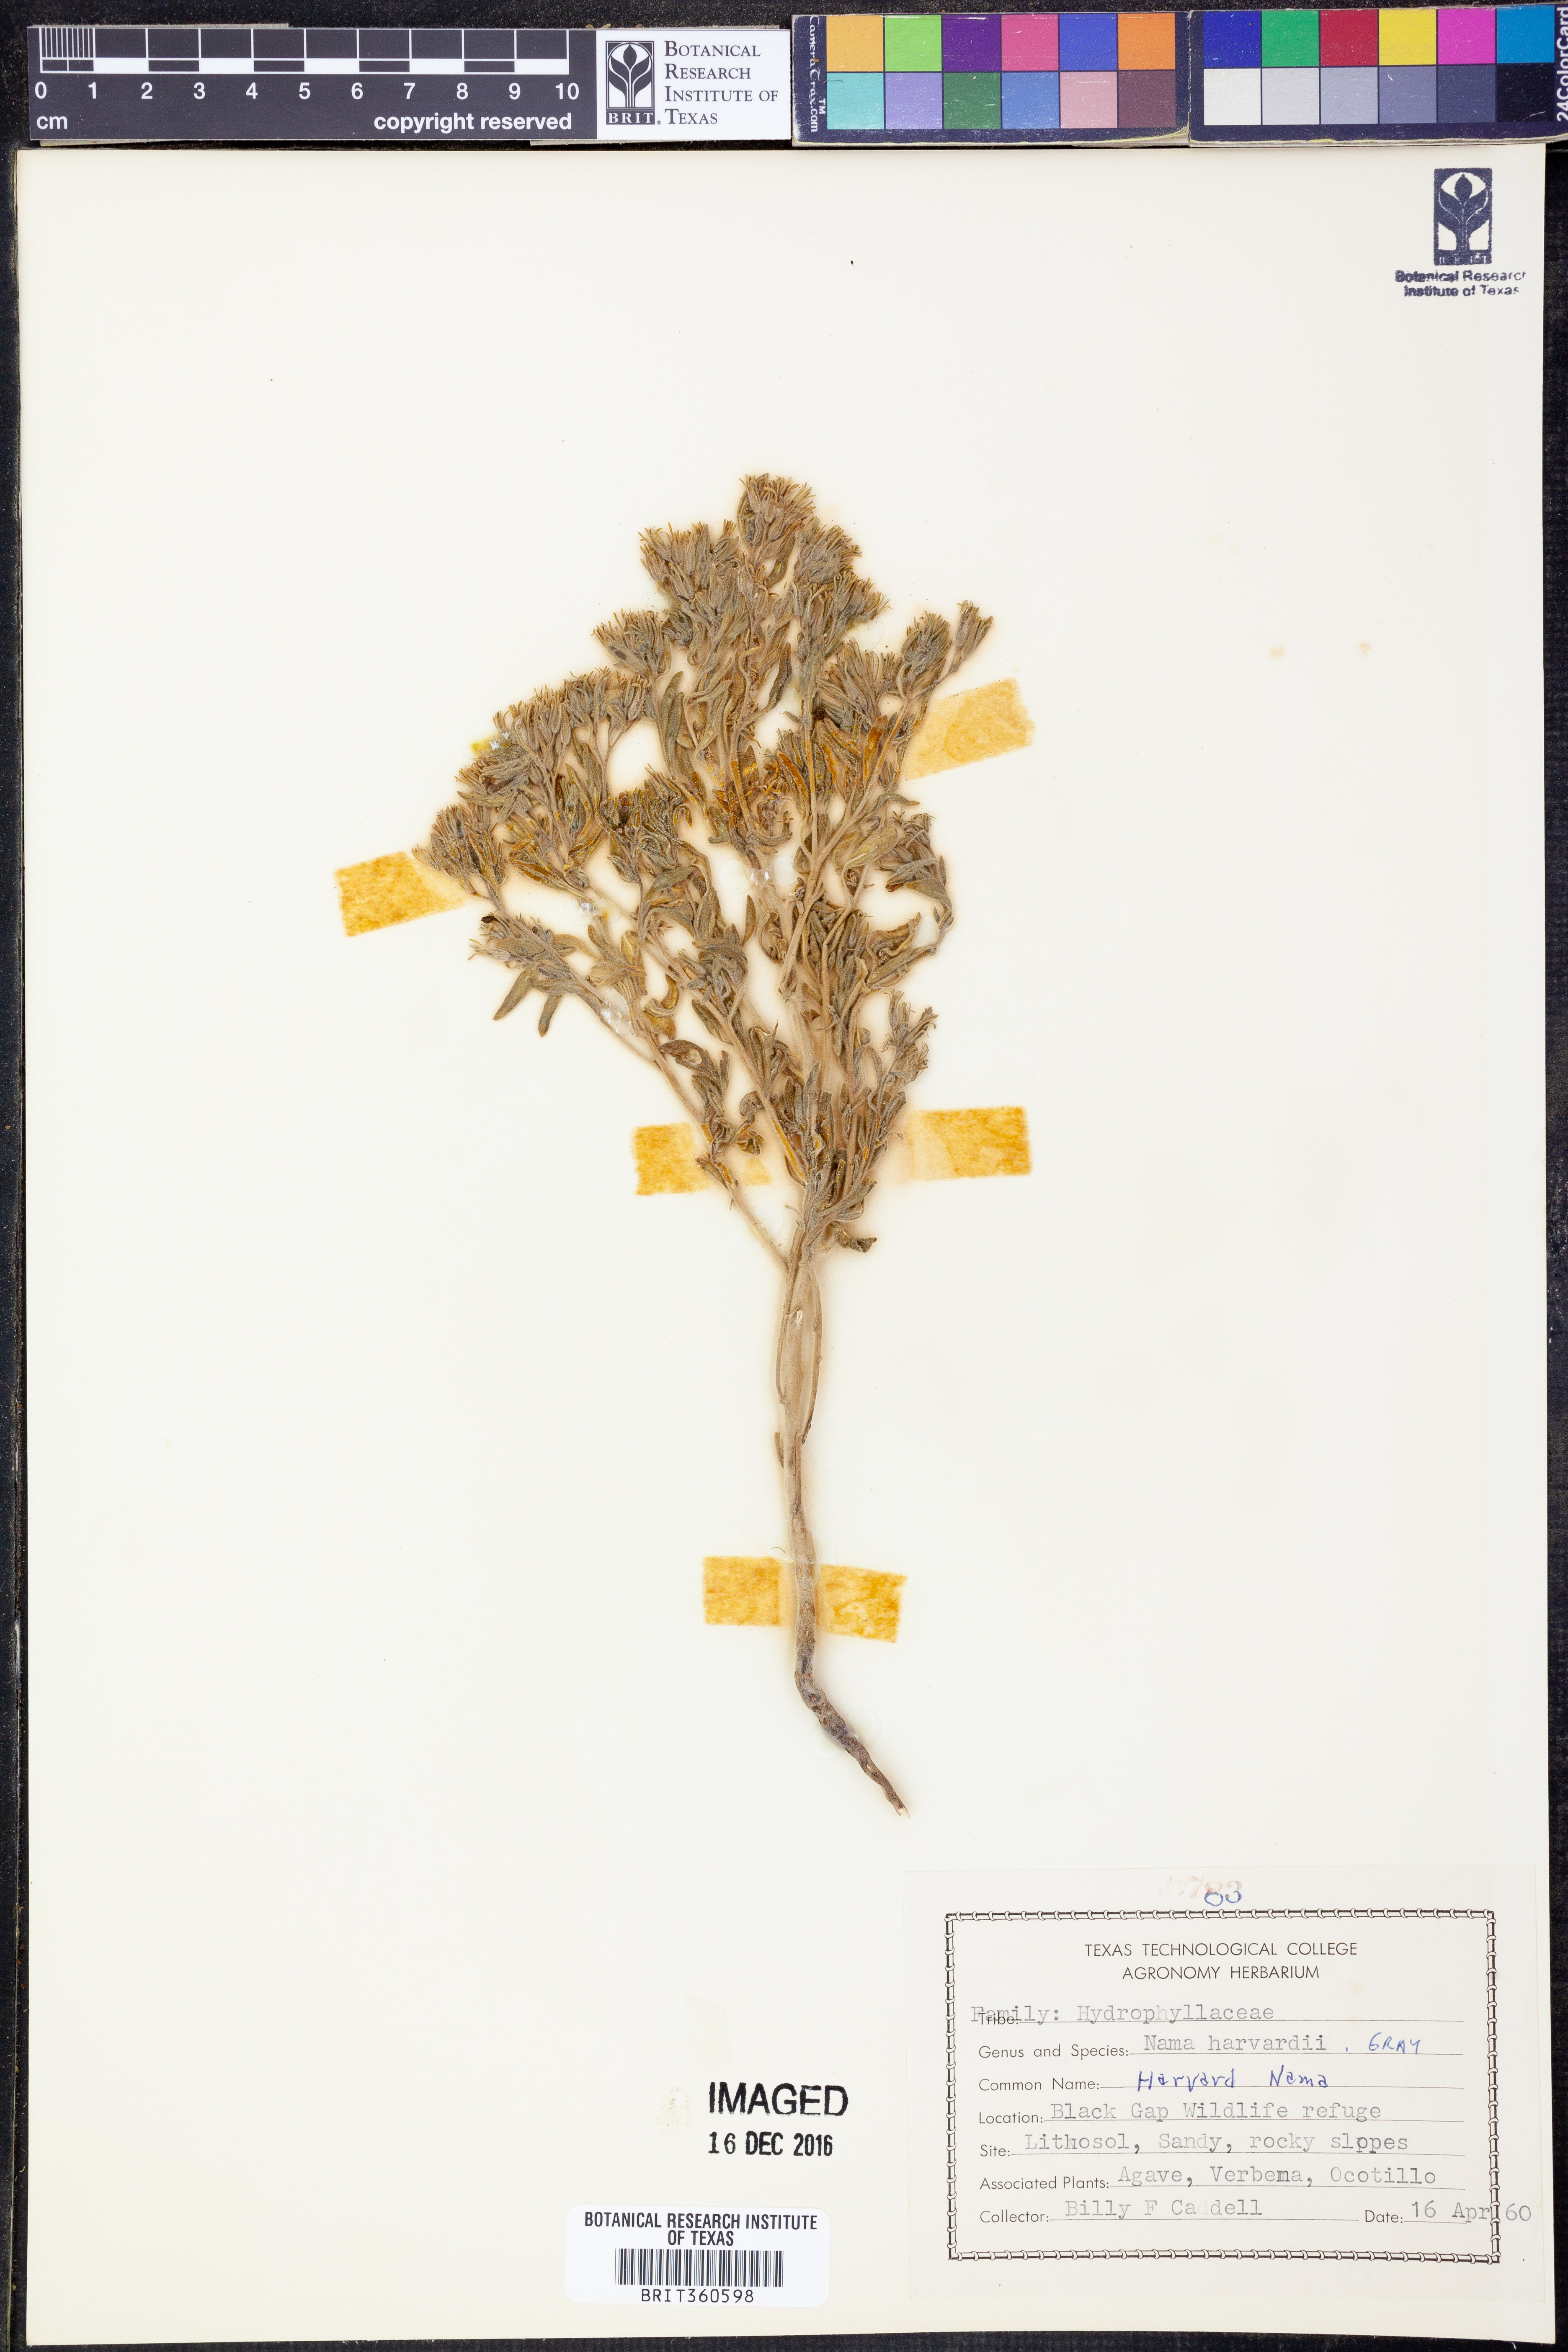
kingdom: Plantae
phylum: Tracheophyta
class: Magnoliopsida
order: Boraginales
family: Namaceae
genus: Nama
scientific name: Nama havardii
